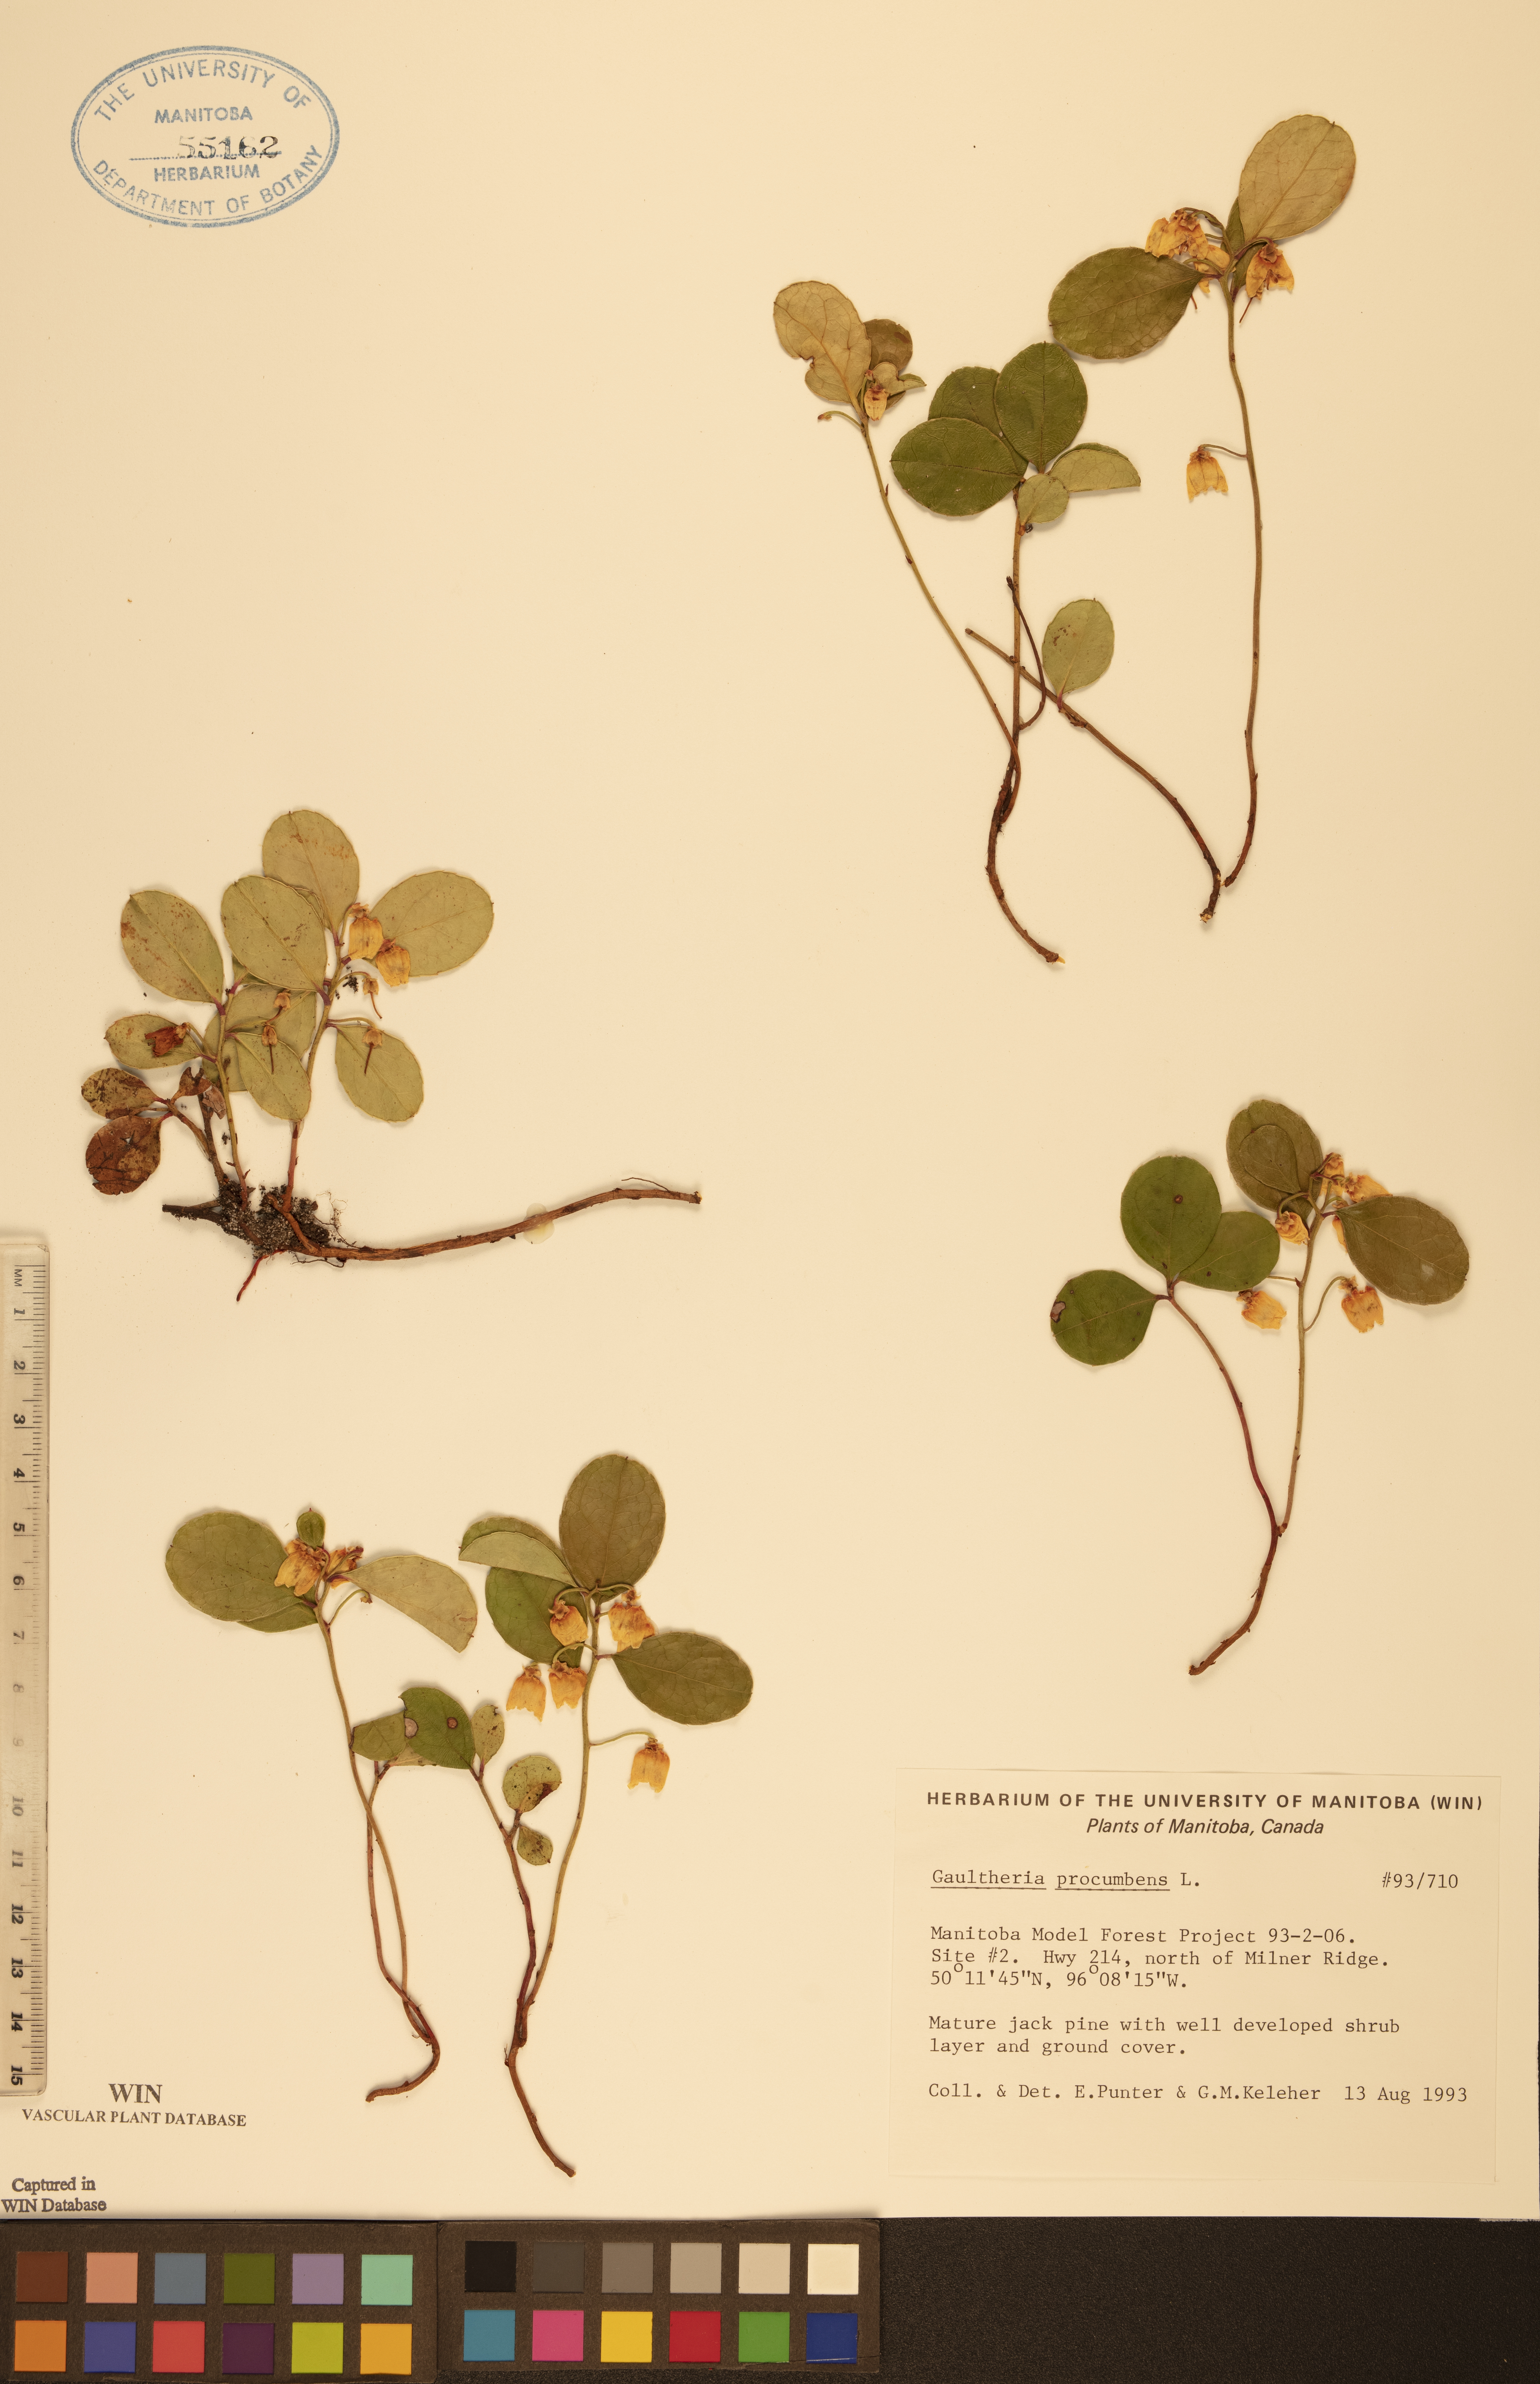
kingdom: Plantae
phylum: Tracheophyta
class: Magnoliopsida
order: Ericales
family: Ericaceae
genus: Gaultheria
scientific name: Gaultheria procumbens
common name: Checkerberry
